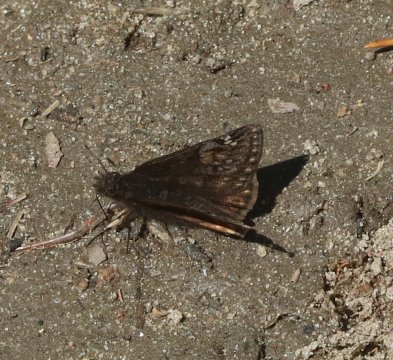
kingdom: Animalia
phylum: Arthropoda
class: Insecta
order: Lepidoptera
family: Hesperiidae
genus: Gesta
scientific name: Gesta
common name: Juvenal's Duskywing
